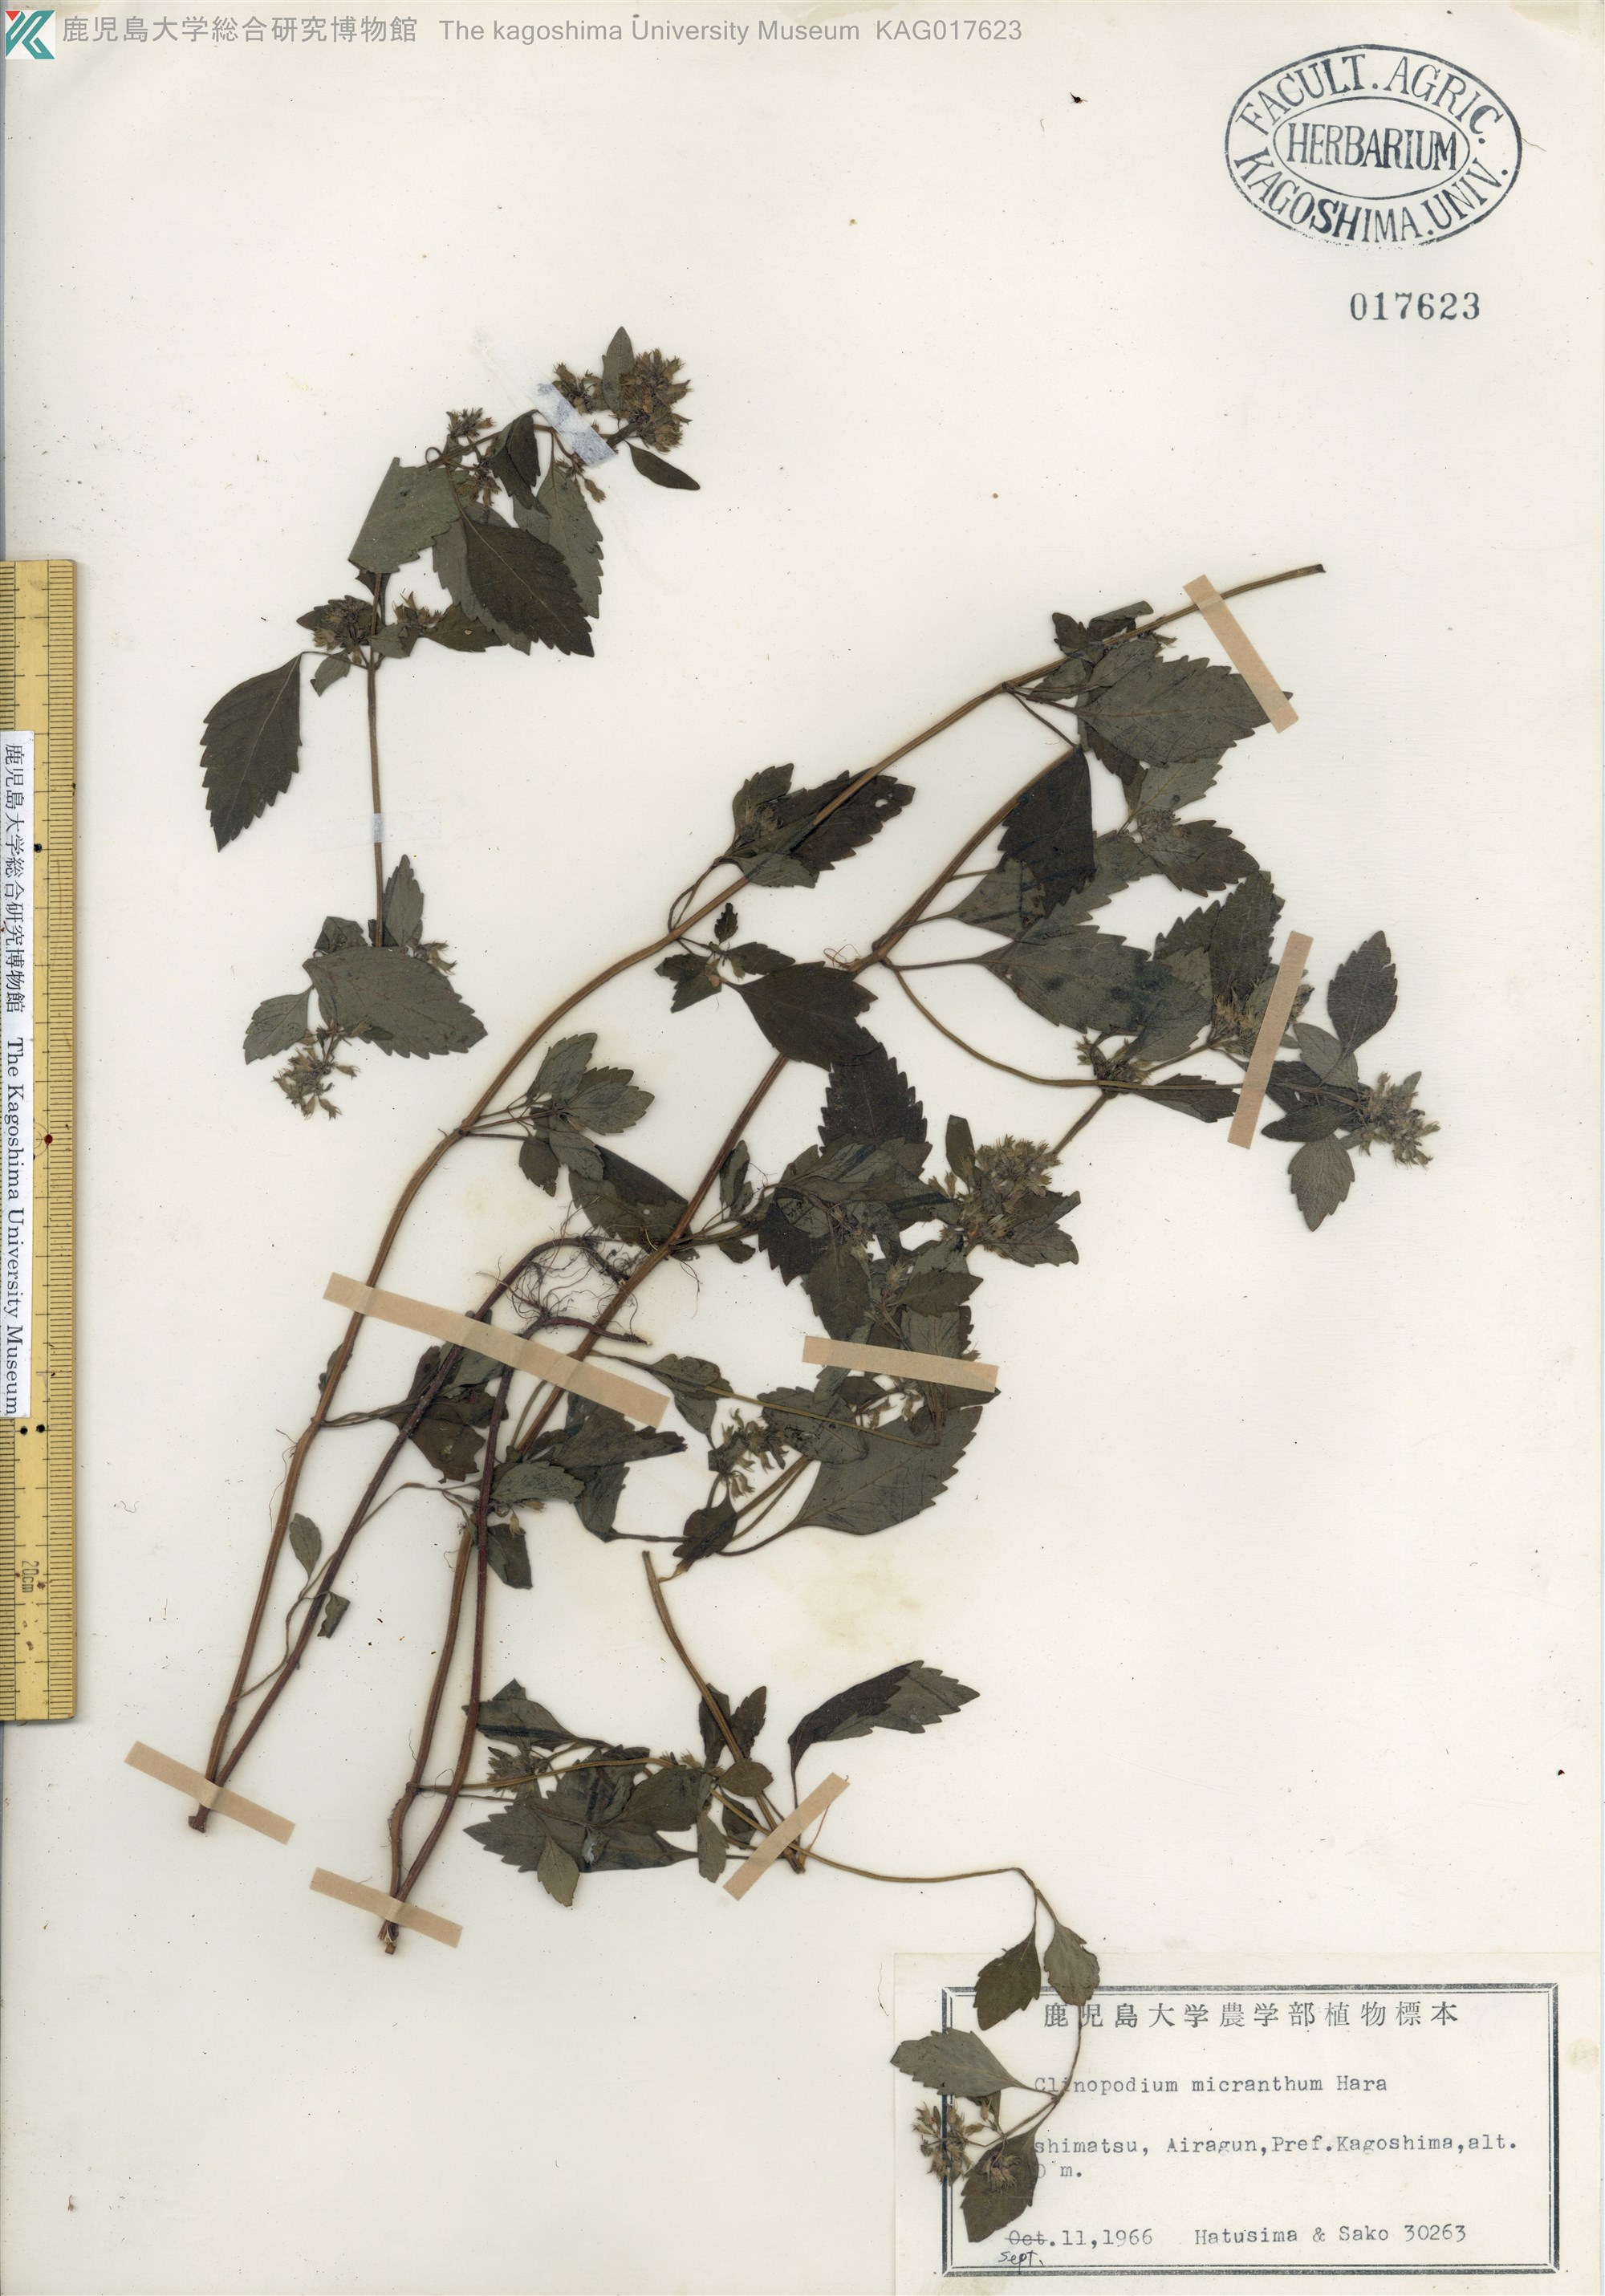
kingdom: Plantae
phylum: Tracheophyta
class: Magnoliopsida
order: Lamiales
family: Lamiaceae
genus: Clinopodium
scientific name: Clinopodium micranthum
